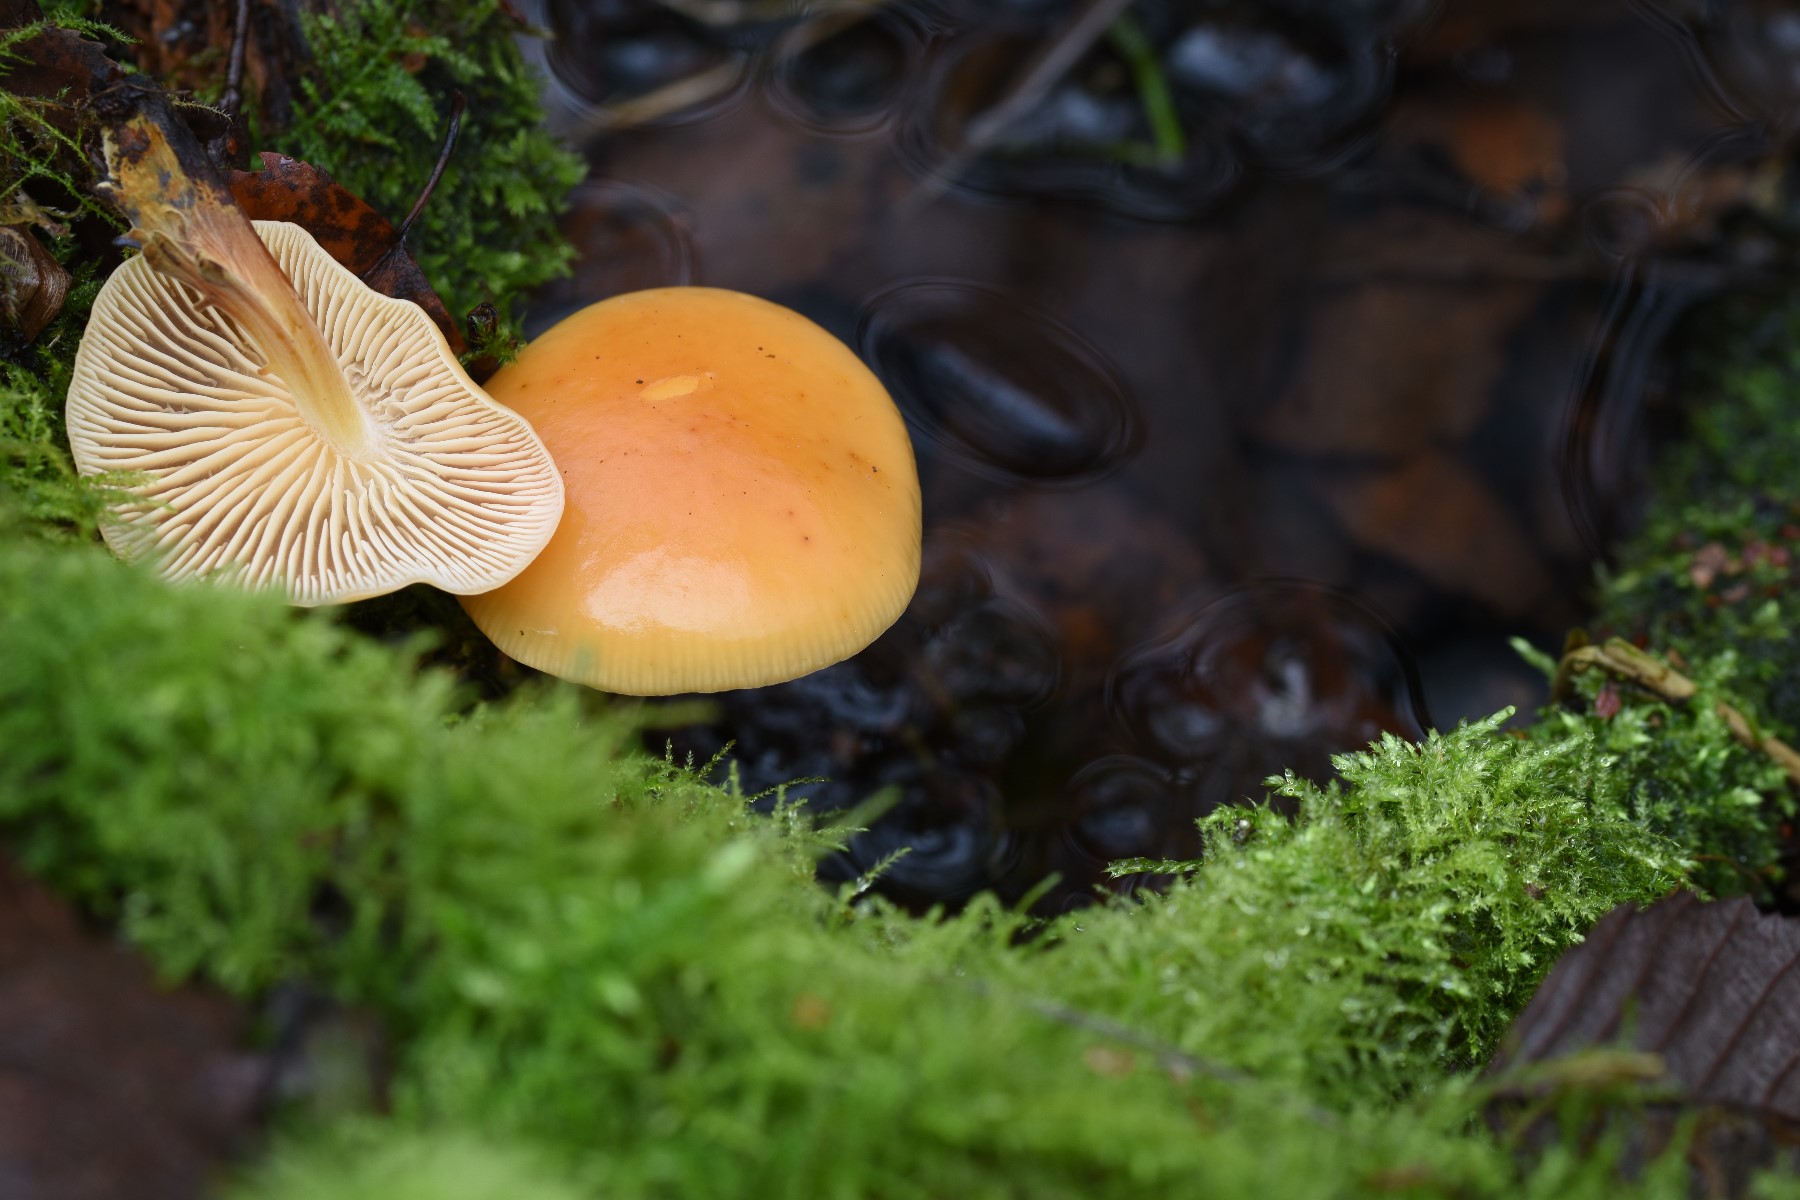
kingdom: Fungi
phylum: Basidiomycota
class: Agaricomycetes
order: Agaricales
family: Physalacriaceae
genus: Flammulina
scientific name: Flammulina velutipes
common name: gul fløjlsfod
